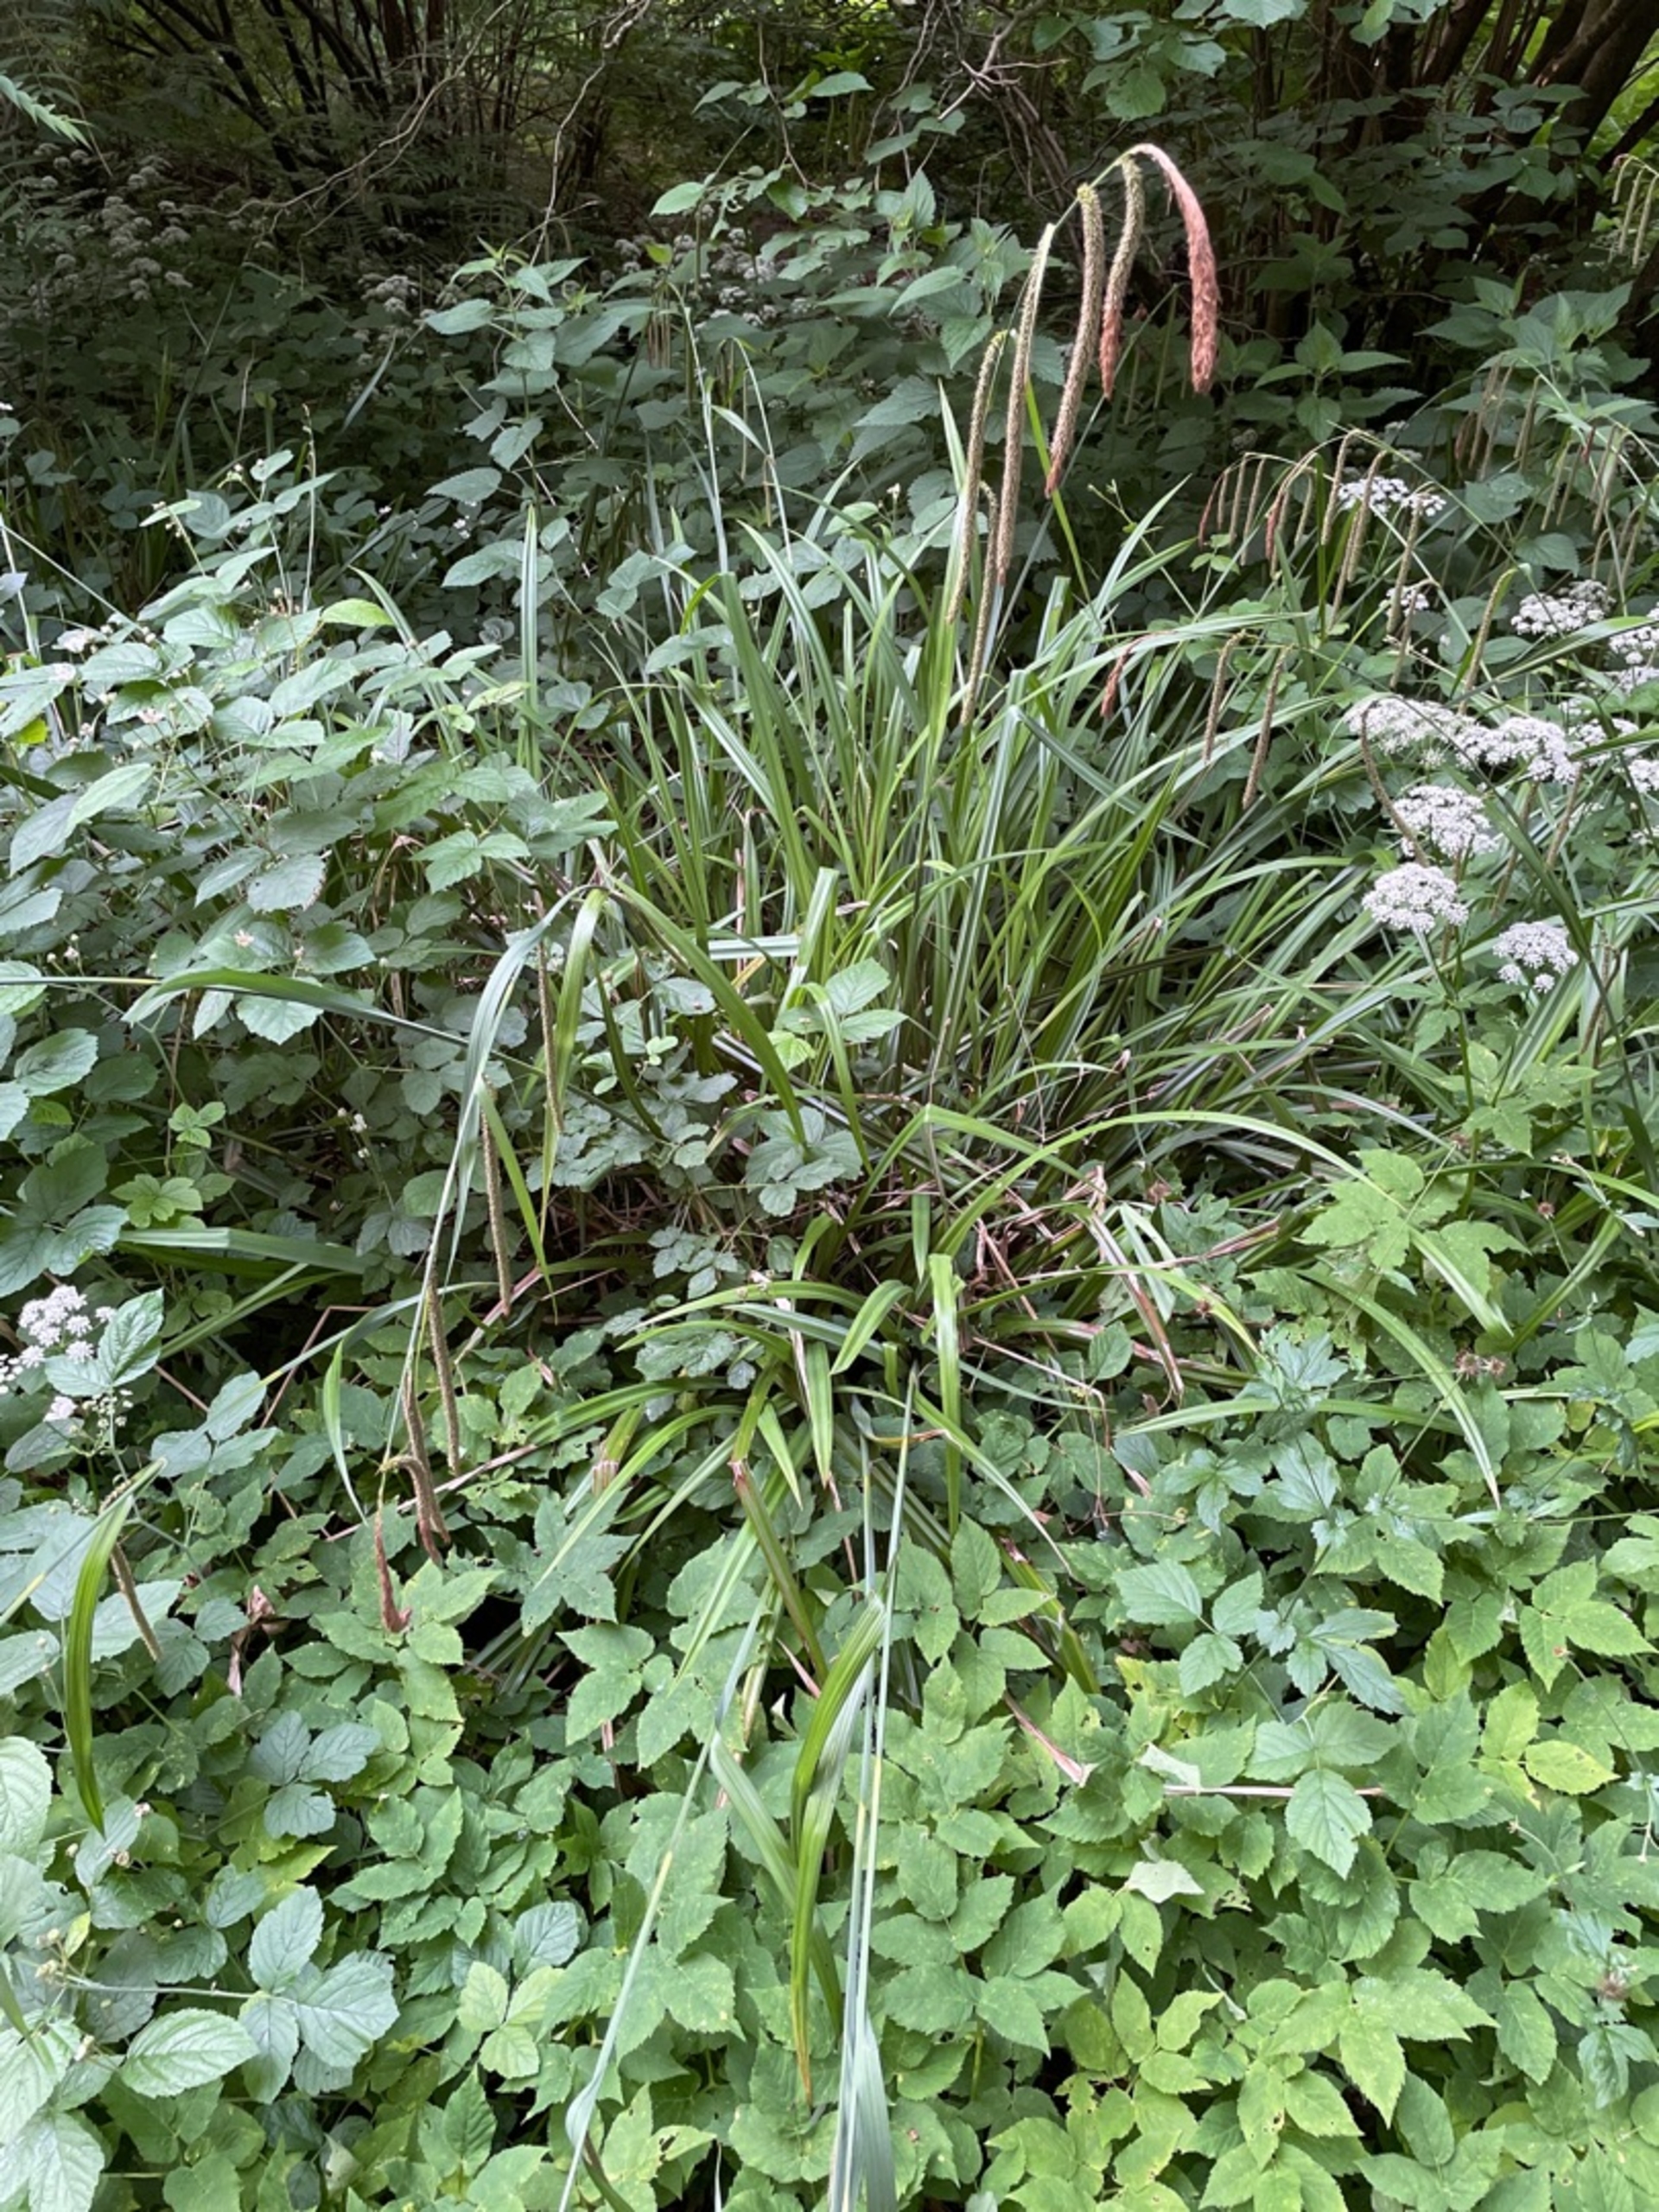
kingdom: Plantae
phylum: Tracheophyta
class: Magnoliopsida
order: Apiales
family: Apiaceae
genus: Aegopodium
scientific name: Aegopodium podagraria
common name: Skvalderkål
